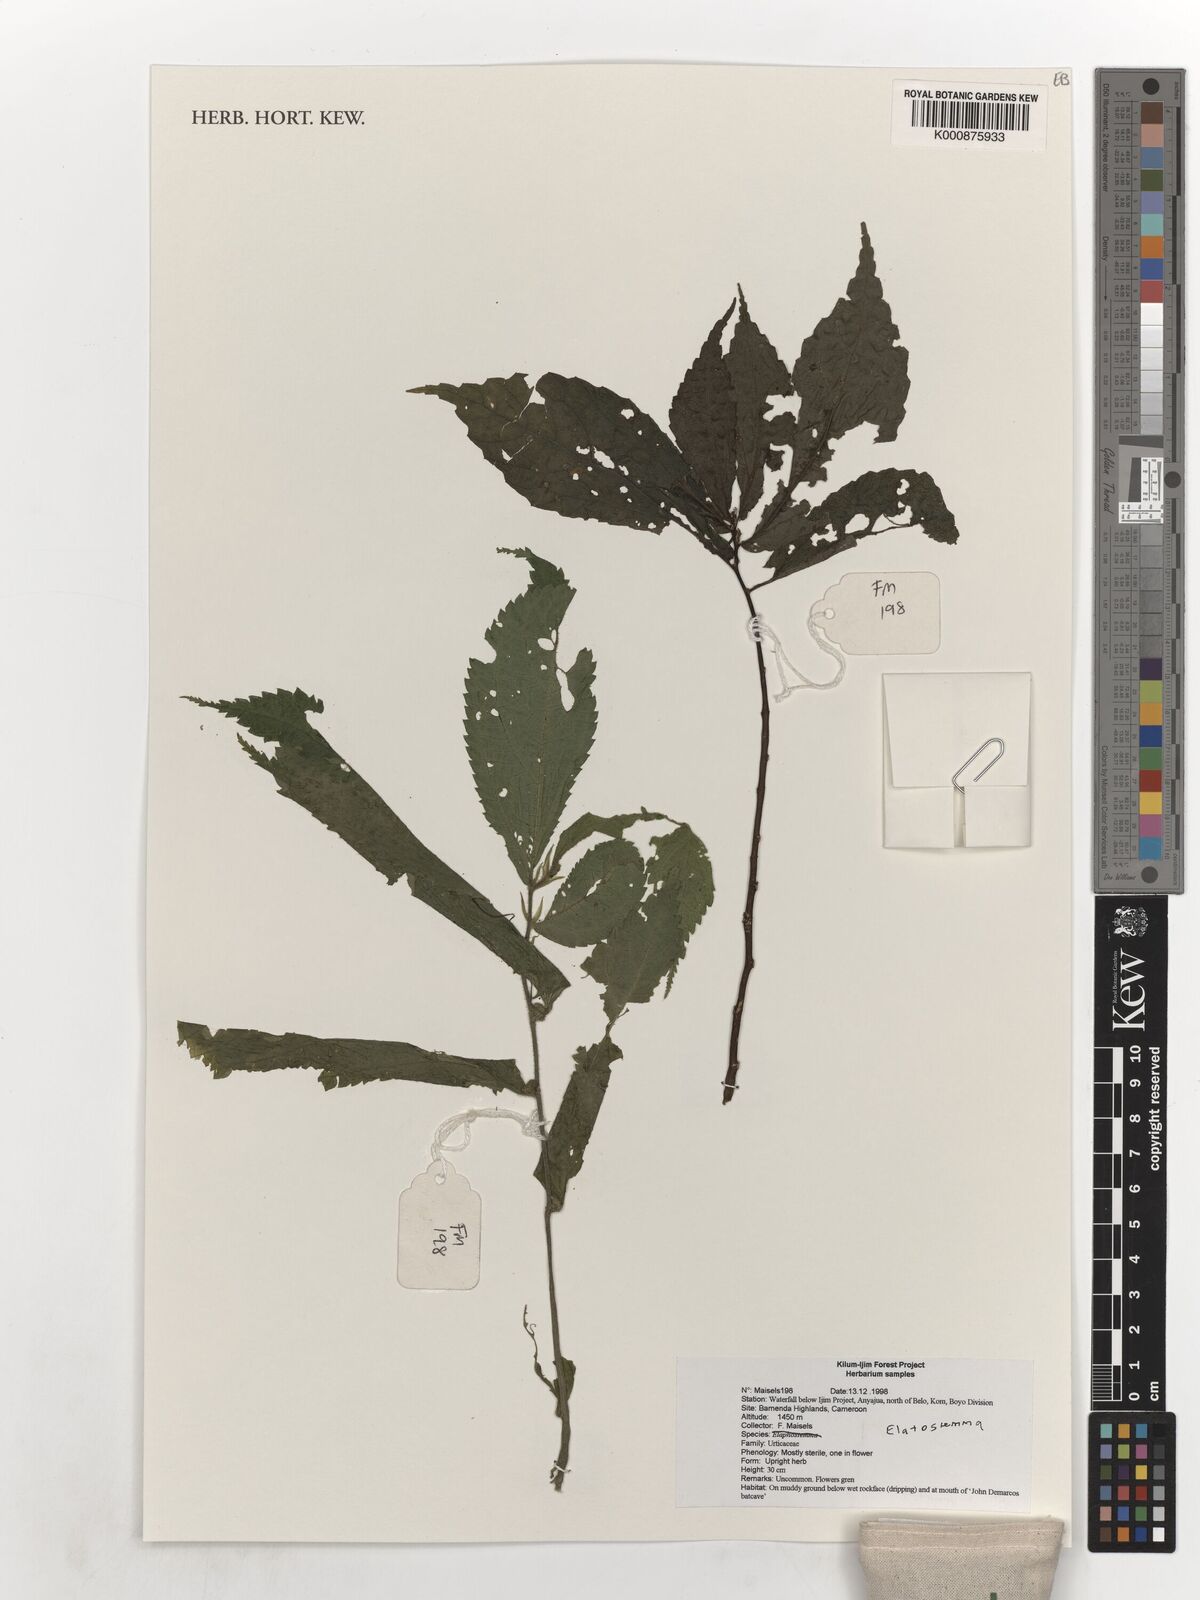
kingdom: Plantae
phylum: Tracheophyta
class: Magnoliopsida
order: Rosales
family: Urticaceae
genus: Elatostema
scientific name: Elatostema
